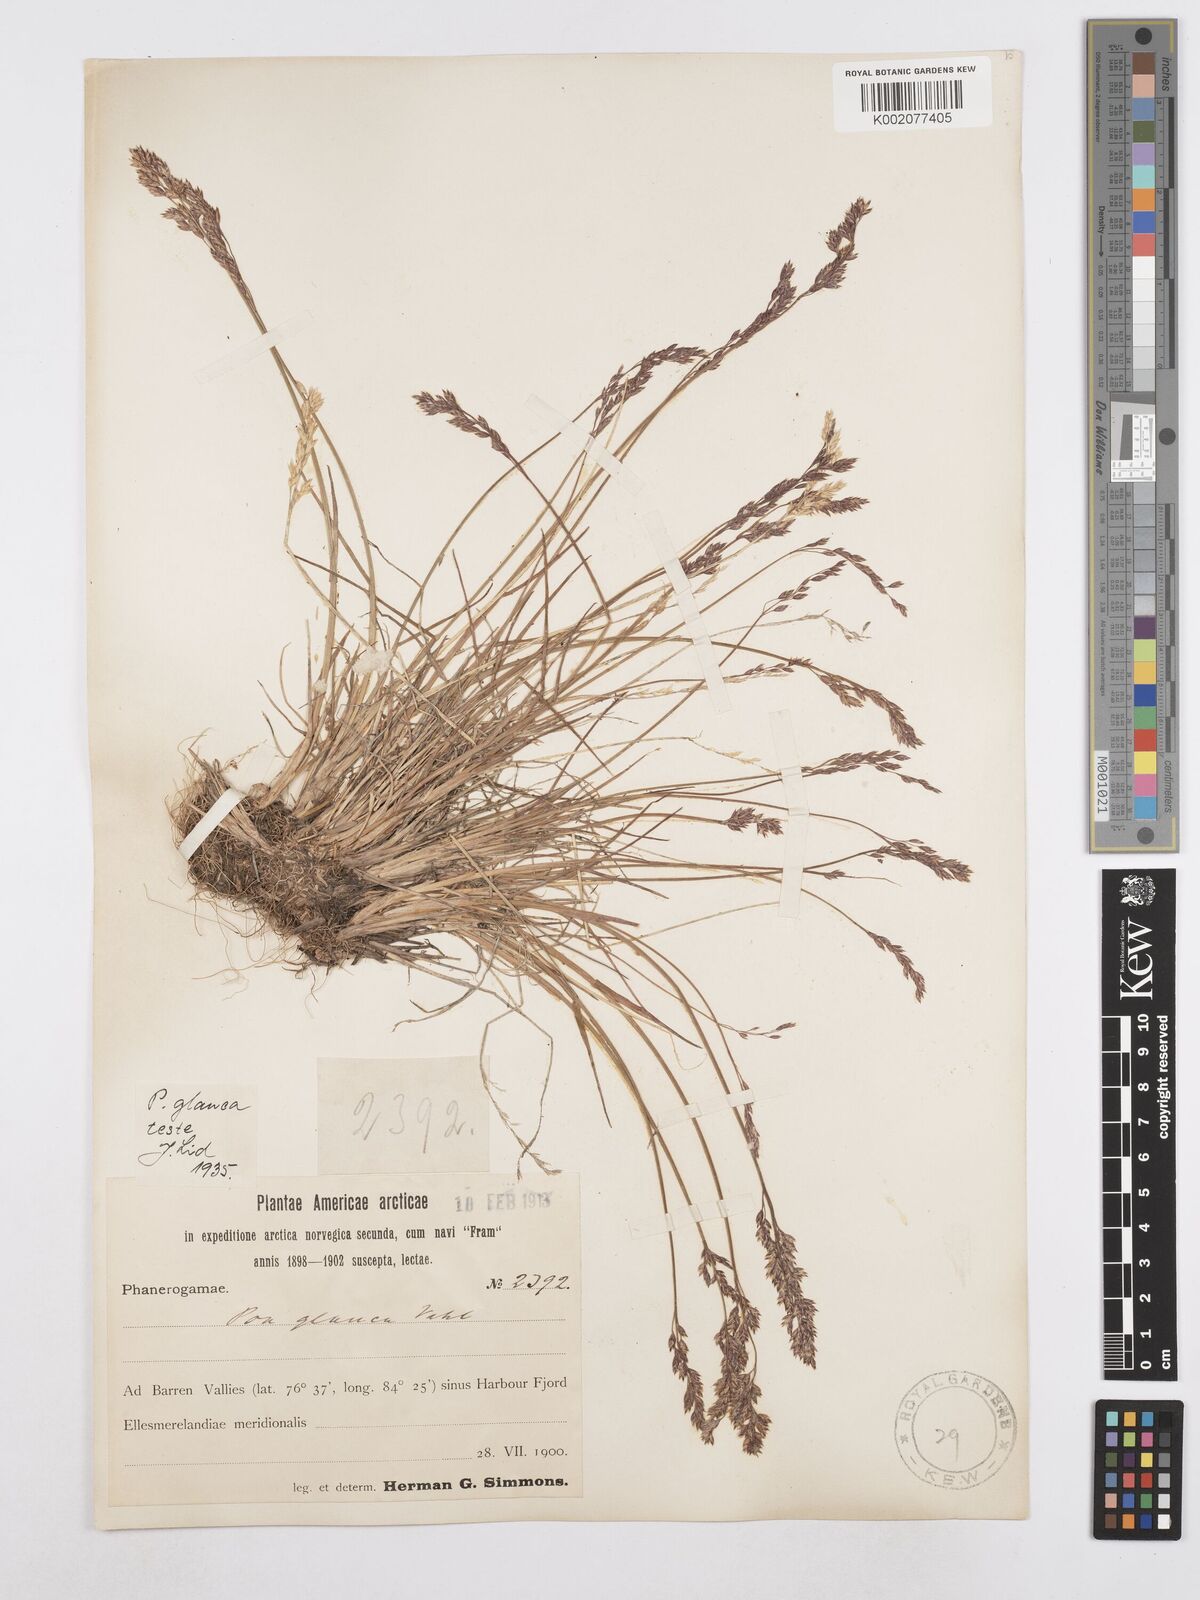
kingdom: Plantae
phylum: Tracheophyta
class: Liliopsida
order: Poales
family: Poaceae
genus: Poa
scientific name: Poa glauca
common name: Glaucous bluegrass
